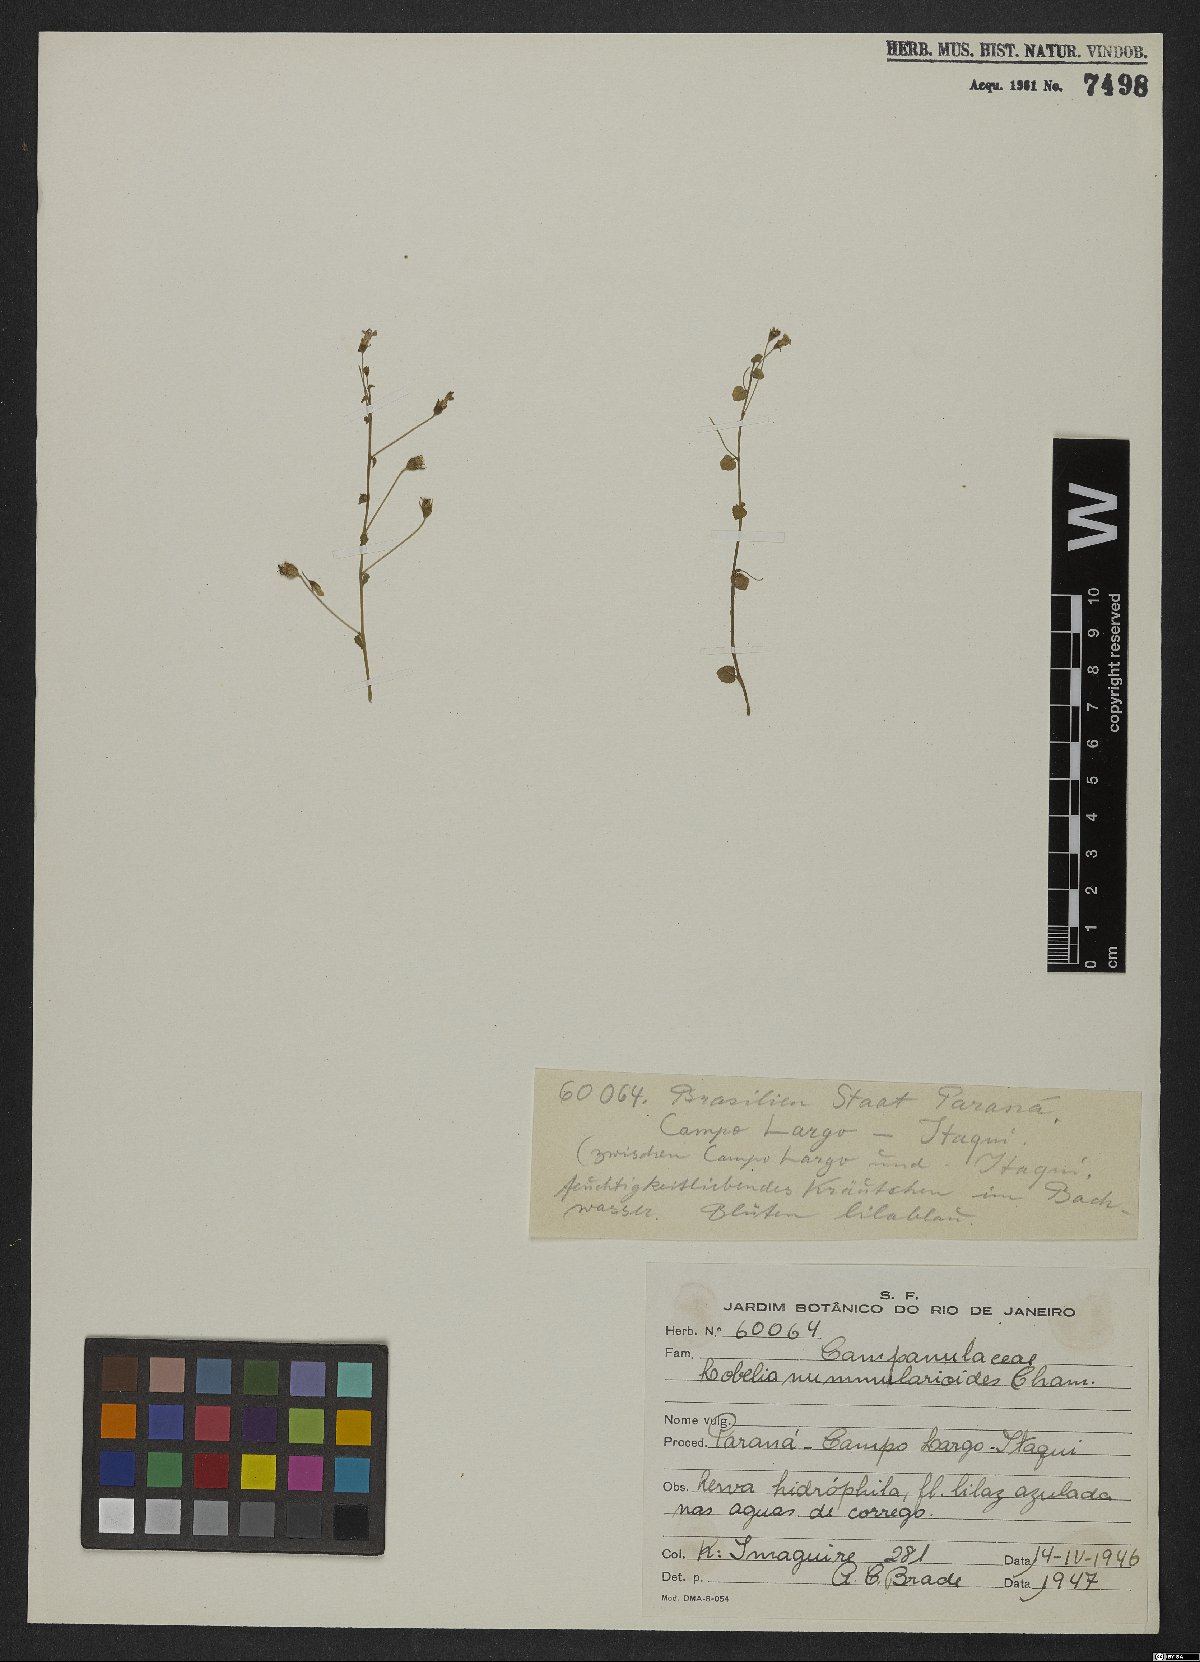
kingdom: Plantae
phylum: Tracheophyta
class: Magnoliopsida
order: Asterales
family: Campanulaceae
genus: Lobelia
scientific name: Lobelia nummularioides
